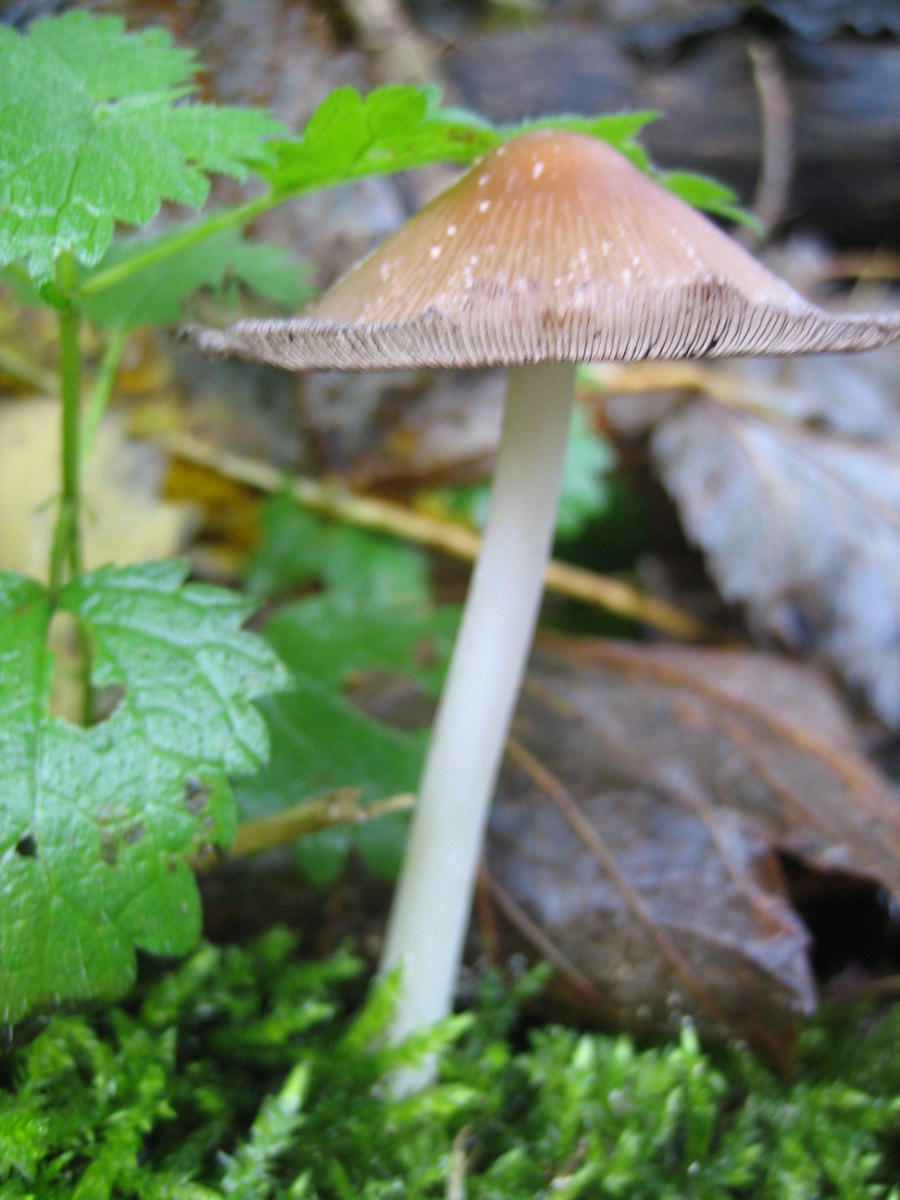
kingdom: Fungi
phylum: Basidiomycota
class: Agaricomycetes
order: Agaricales
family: Psathyrellaceae
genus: Coprinellus
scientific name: Coprinellus
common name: blækhat
